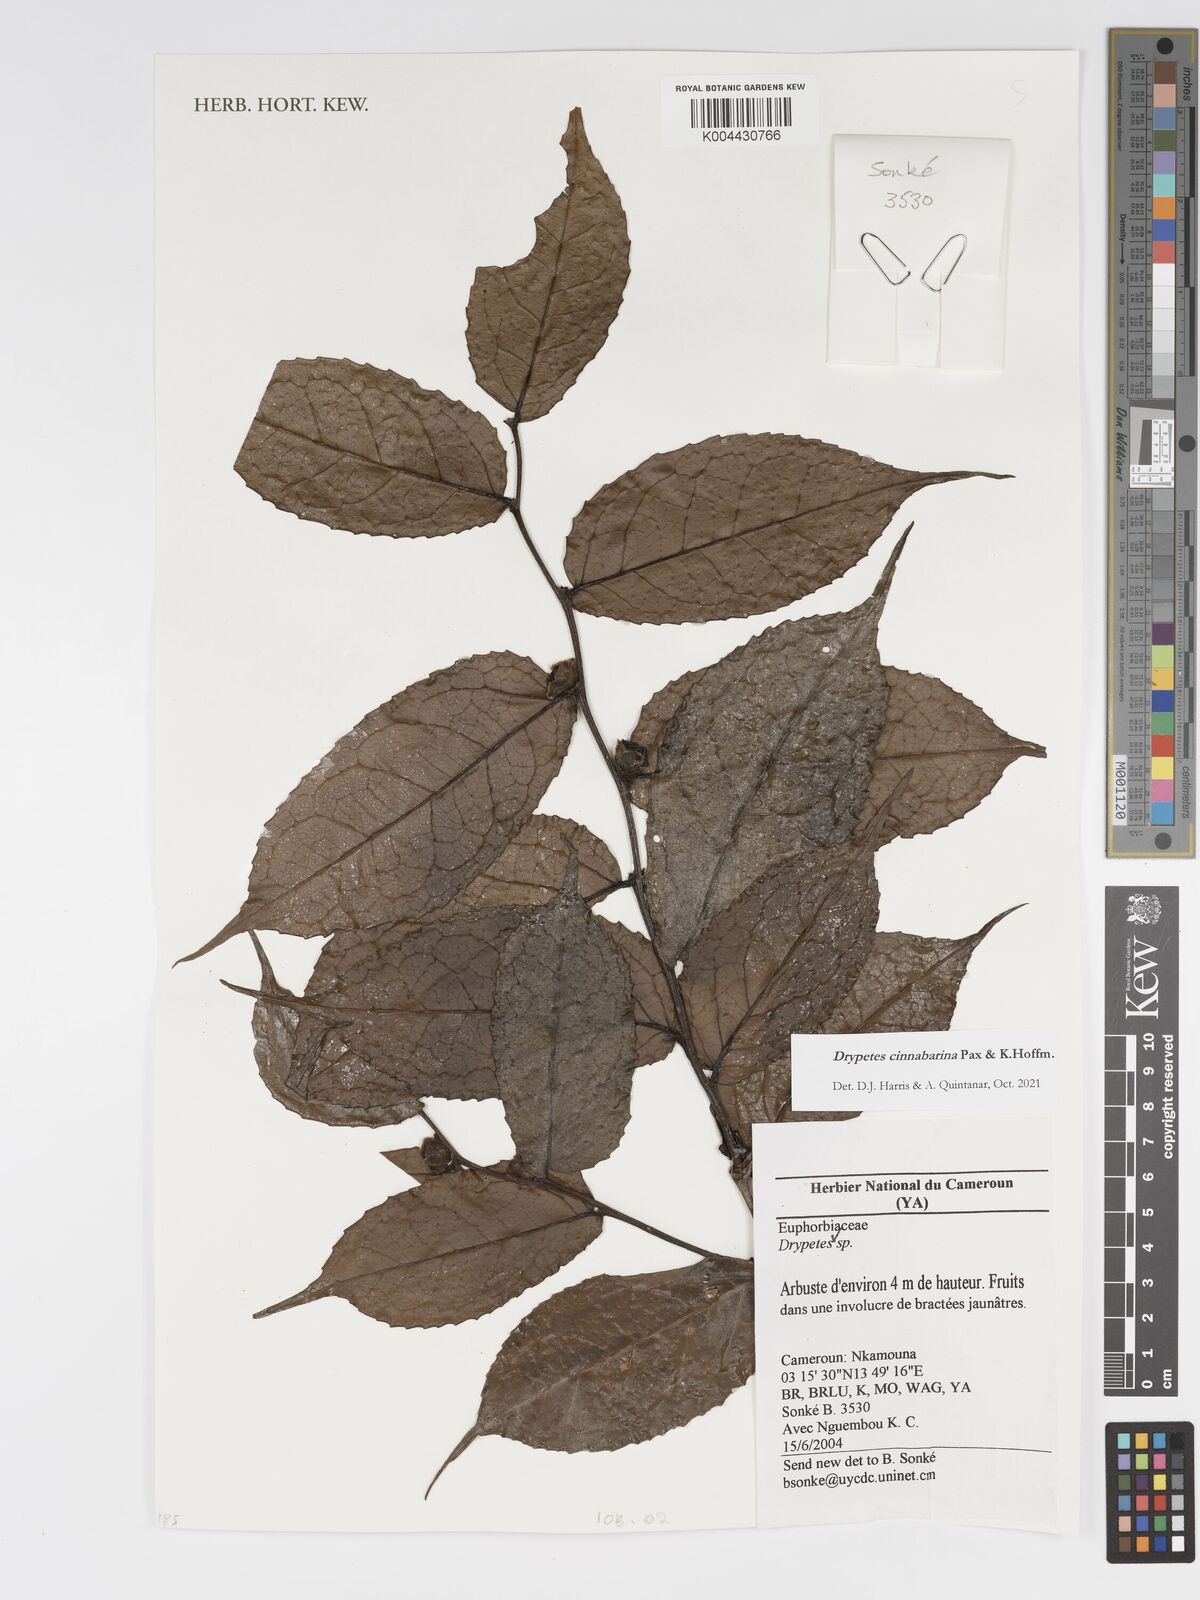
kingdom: Plantae
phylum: Tracheophyta
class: Magnoliopsida
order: Malpighiales
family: Putranjivaceae
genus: Drypetes
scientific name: Drypetes cinnabarina
